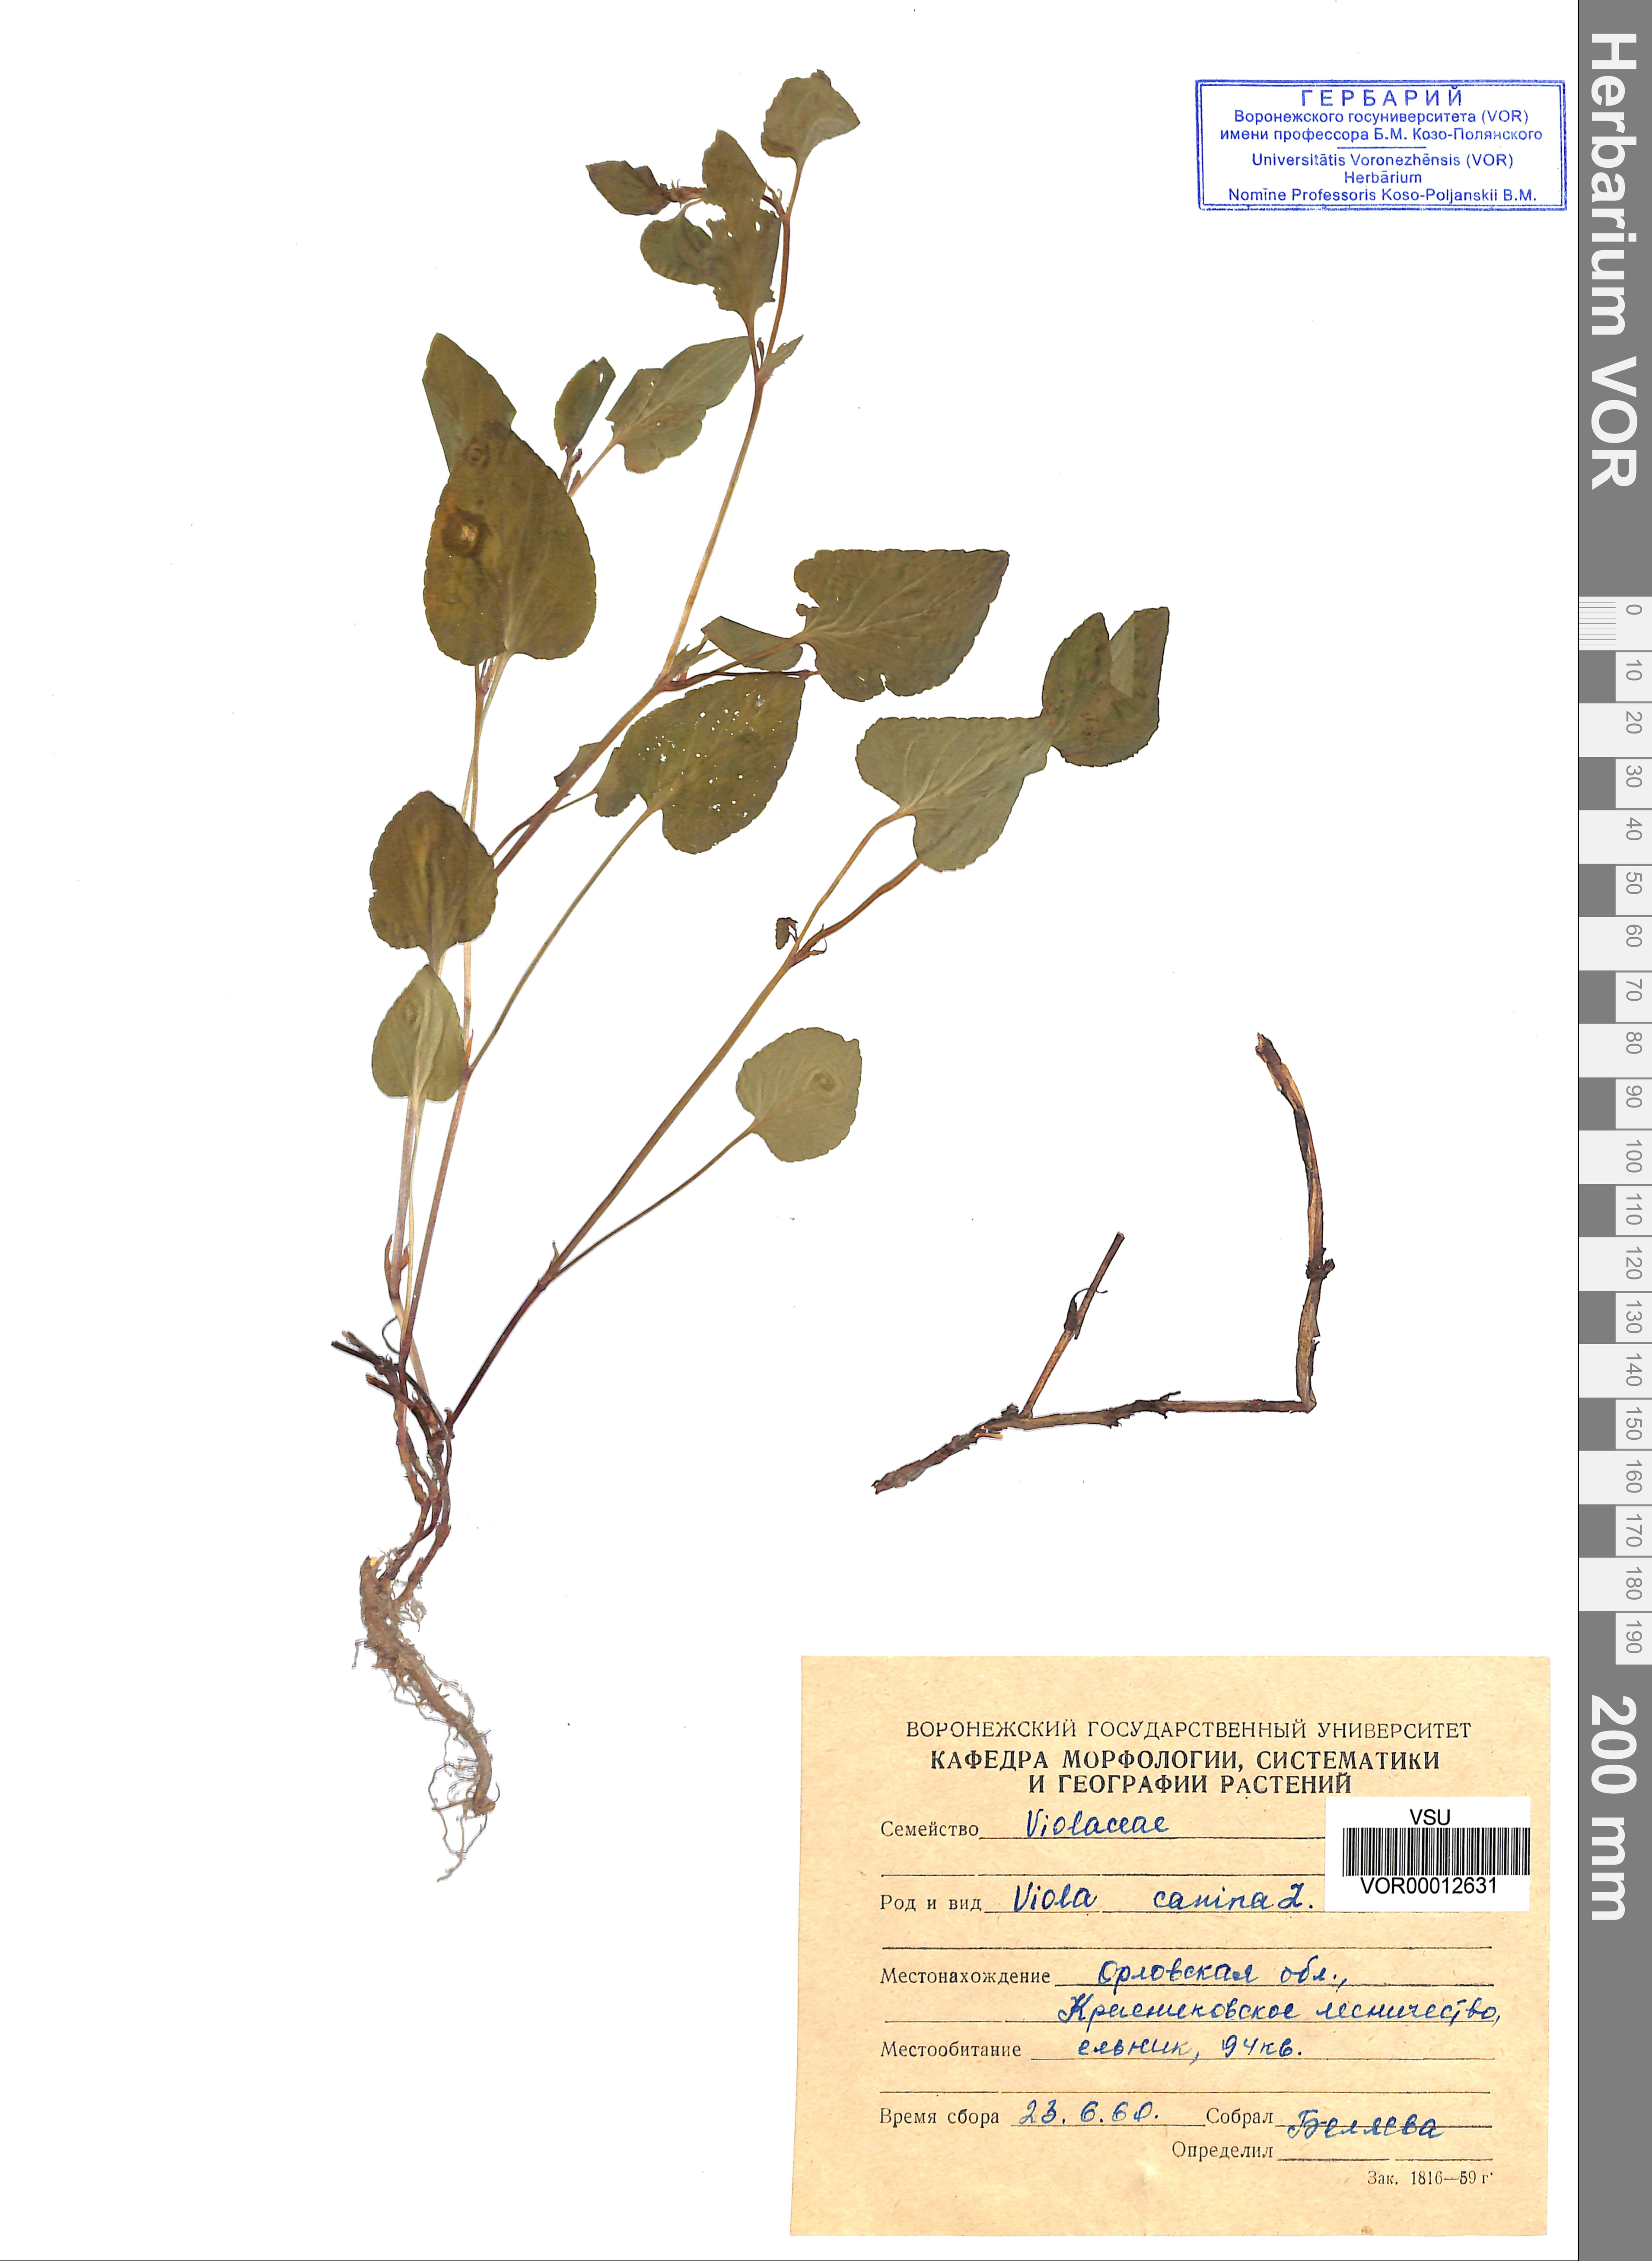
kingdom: Plantae
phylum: Tracheophyta
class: Magnoliopsida
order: Malpighiales
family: Violaceae
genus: Viola
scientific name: Viola canina
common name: Heath dog-violet
